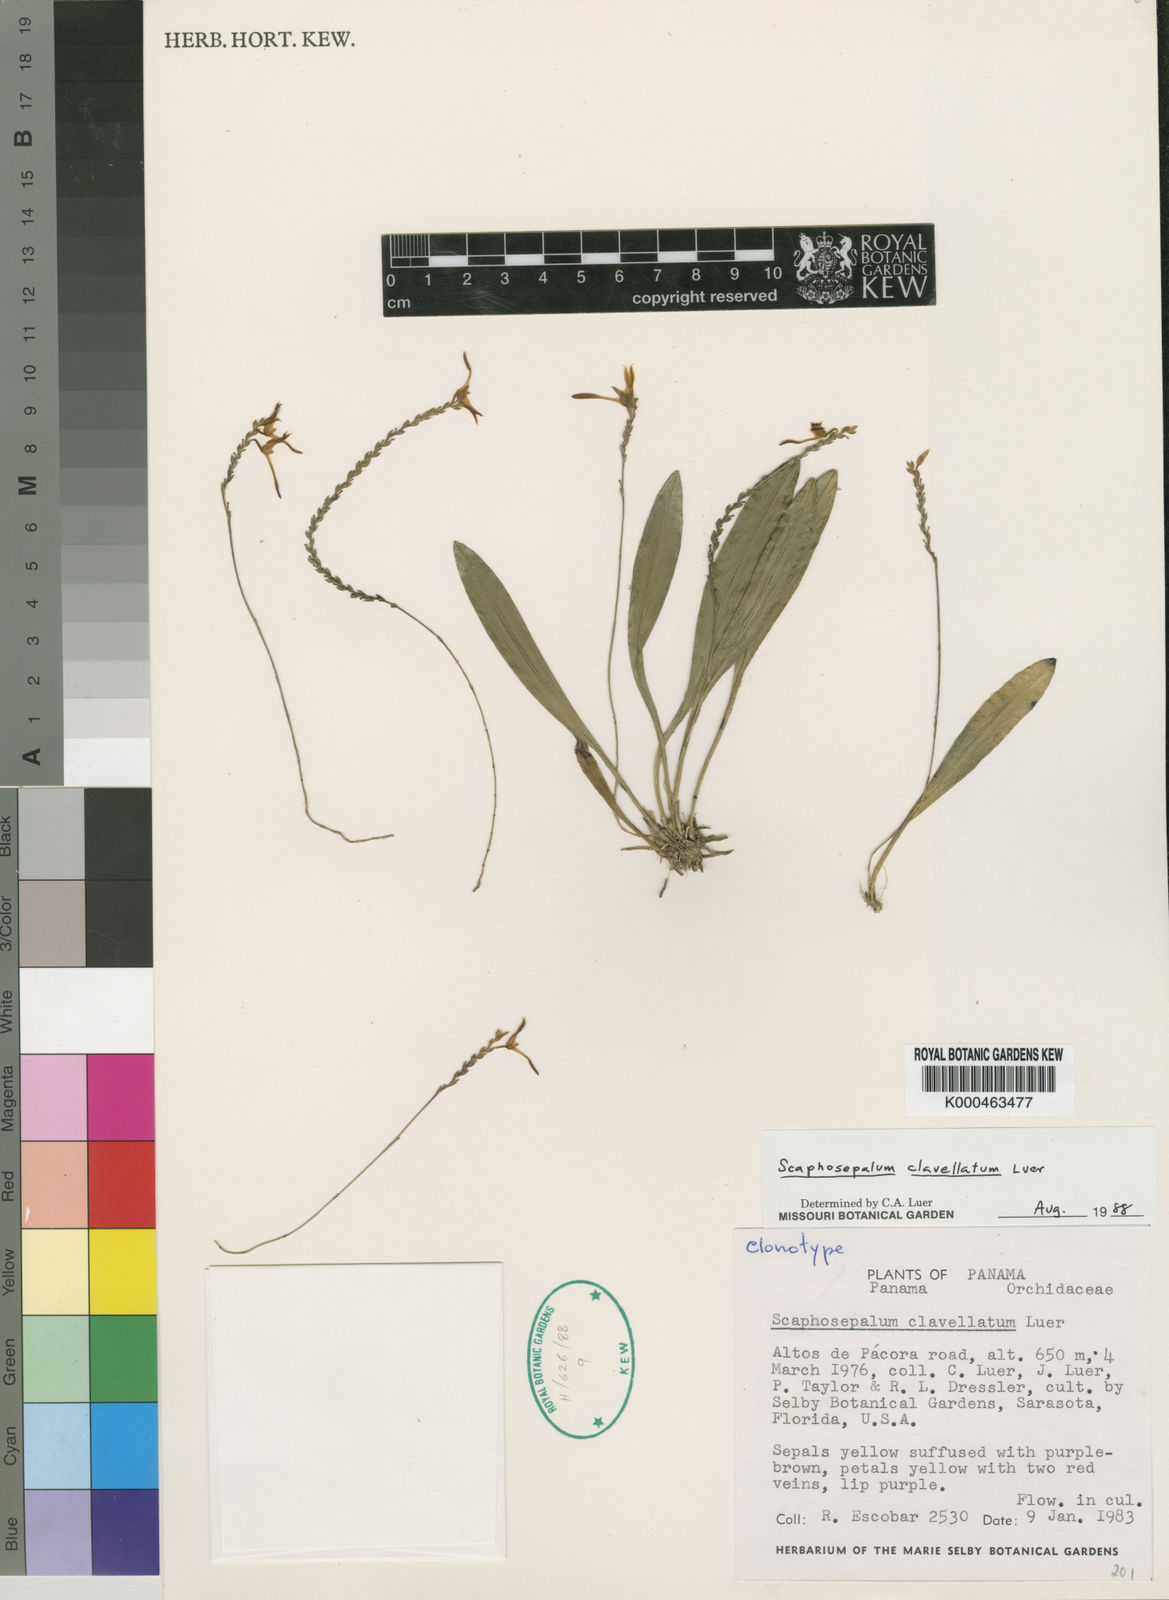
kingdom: Plantae
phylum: Tracheophyta
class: Liliopsida
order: Asparagales
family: Orchidaceae
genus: Scaphosepalum
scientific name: Scaphosepalum clavellatum
